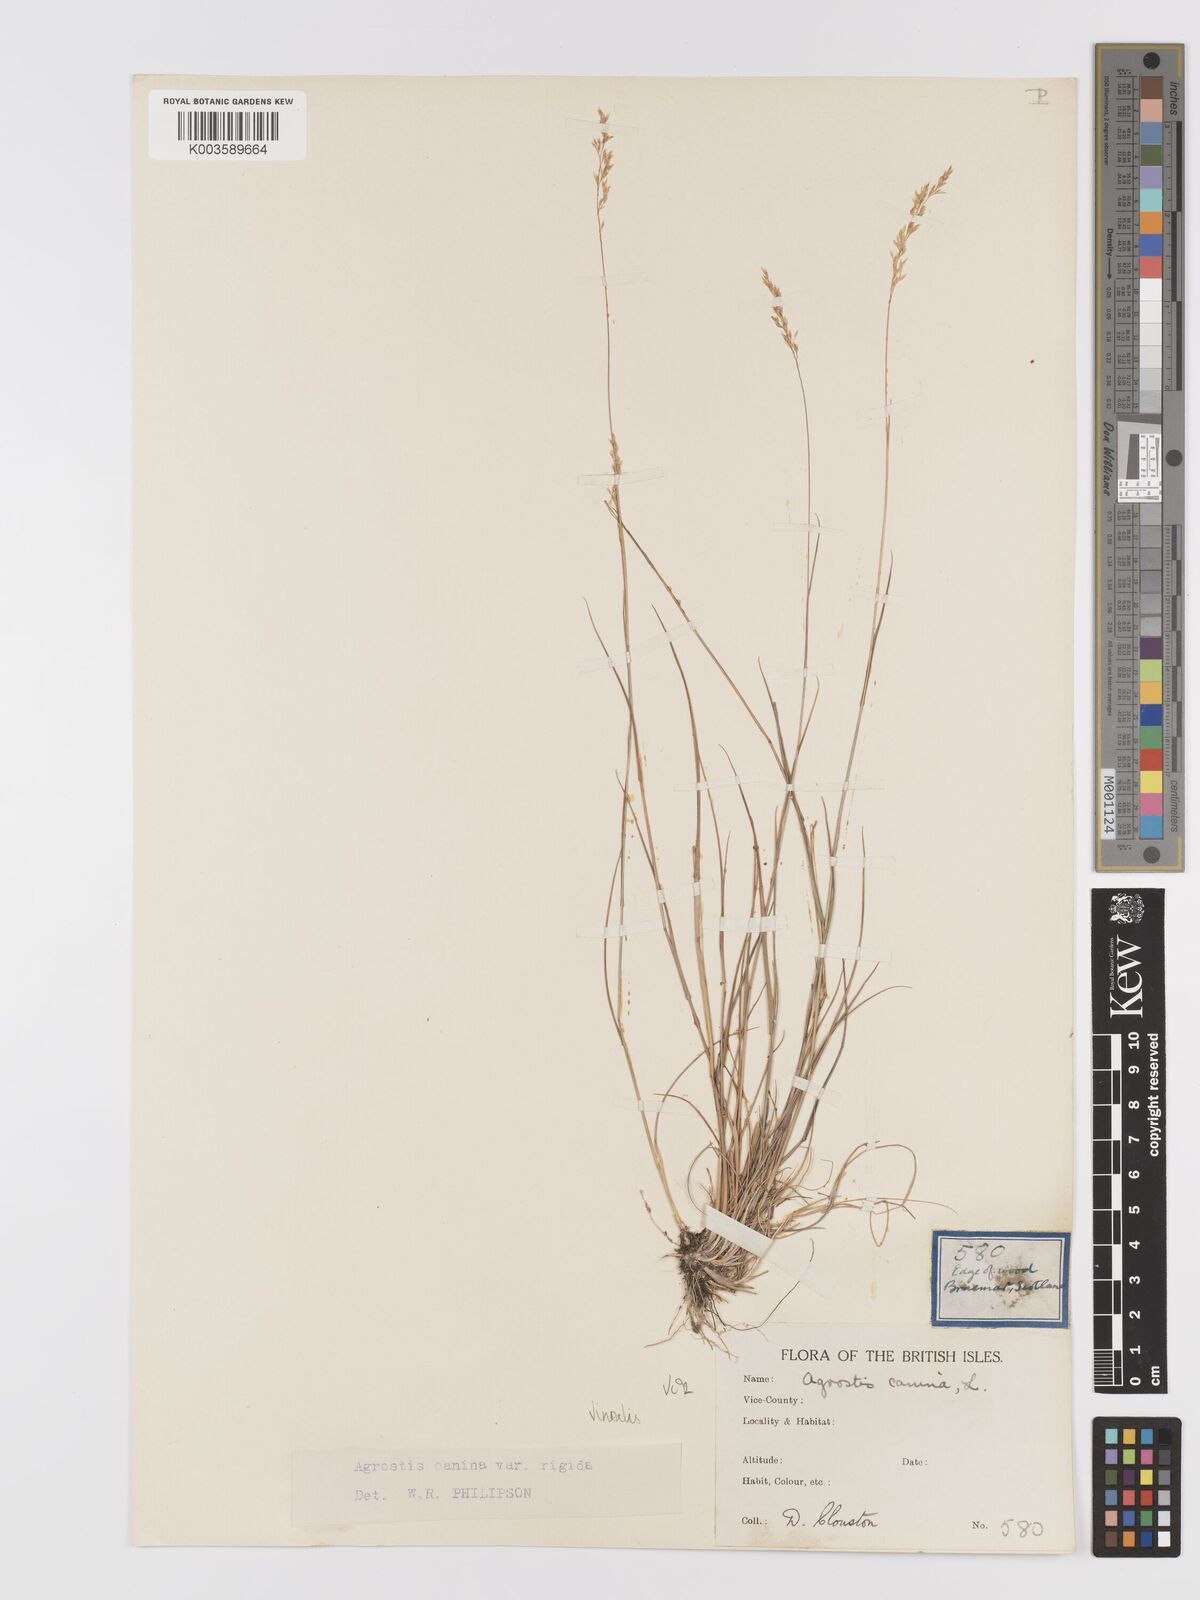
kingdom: Plantae
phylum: Tracheophyta
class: Liliopsida
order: Poales
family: Poaceae
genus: Agrostis
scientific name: Agrostis
